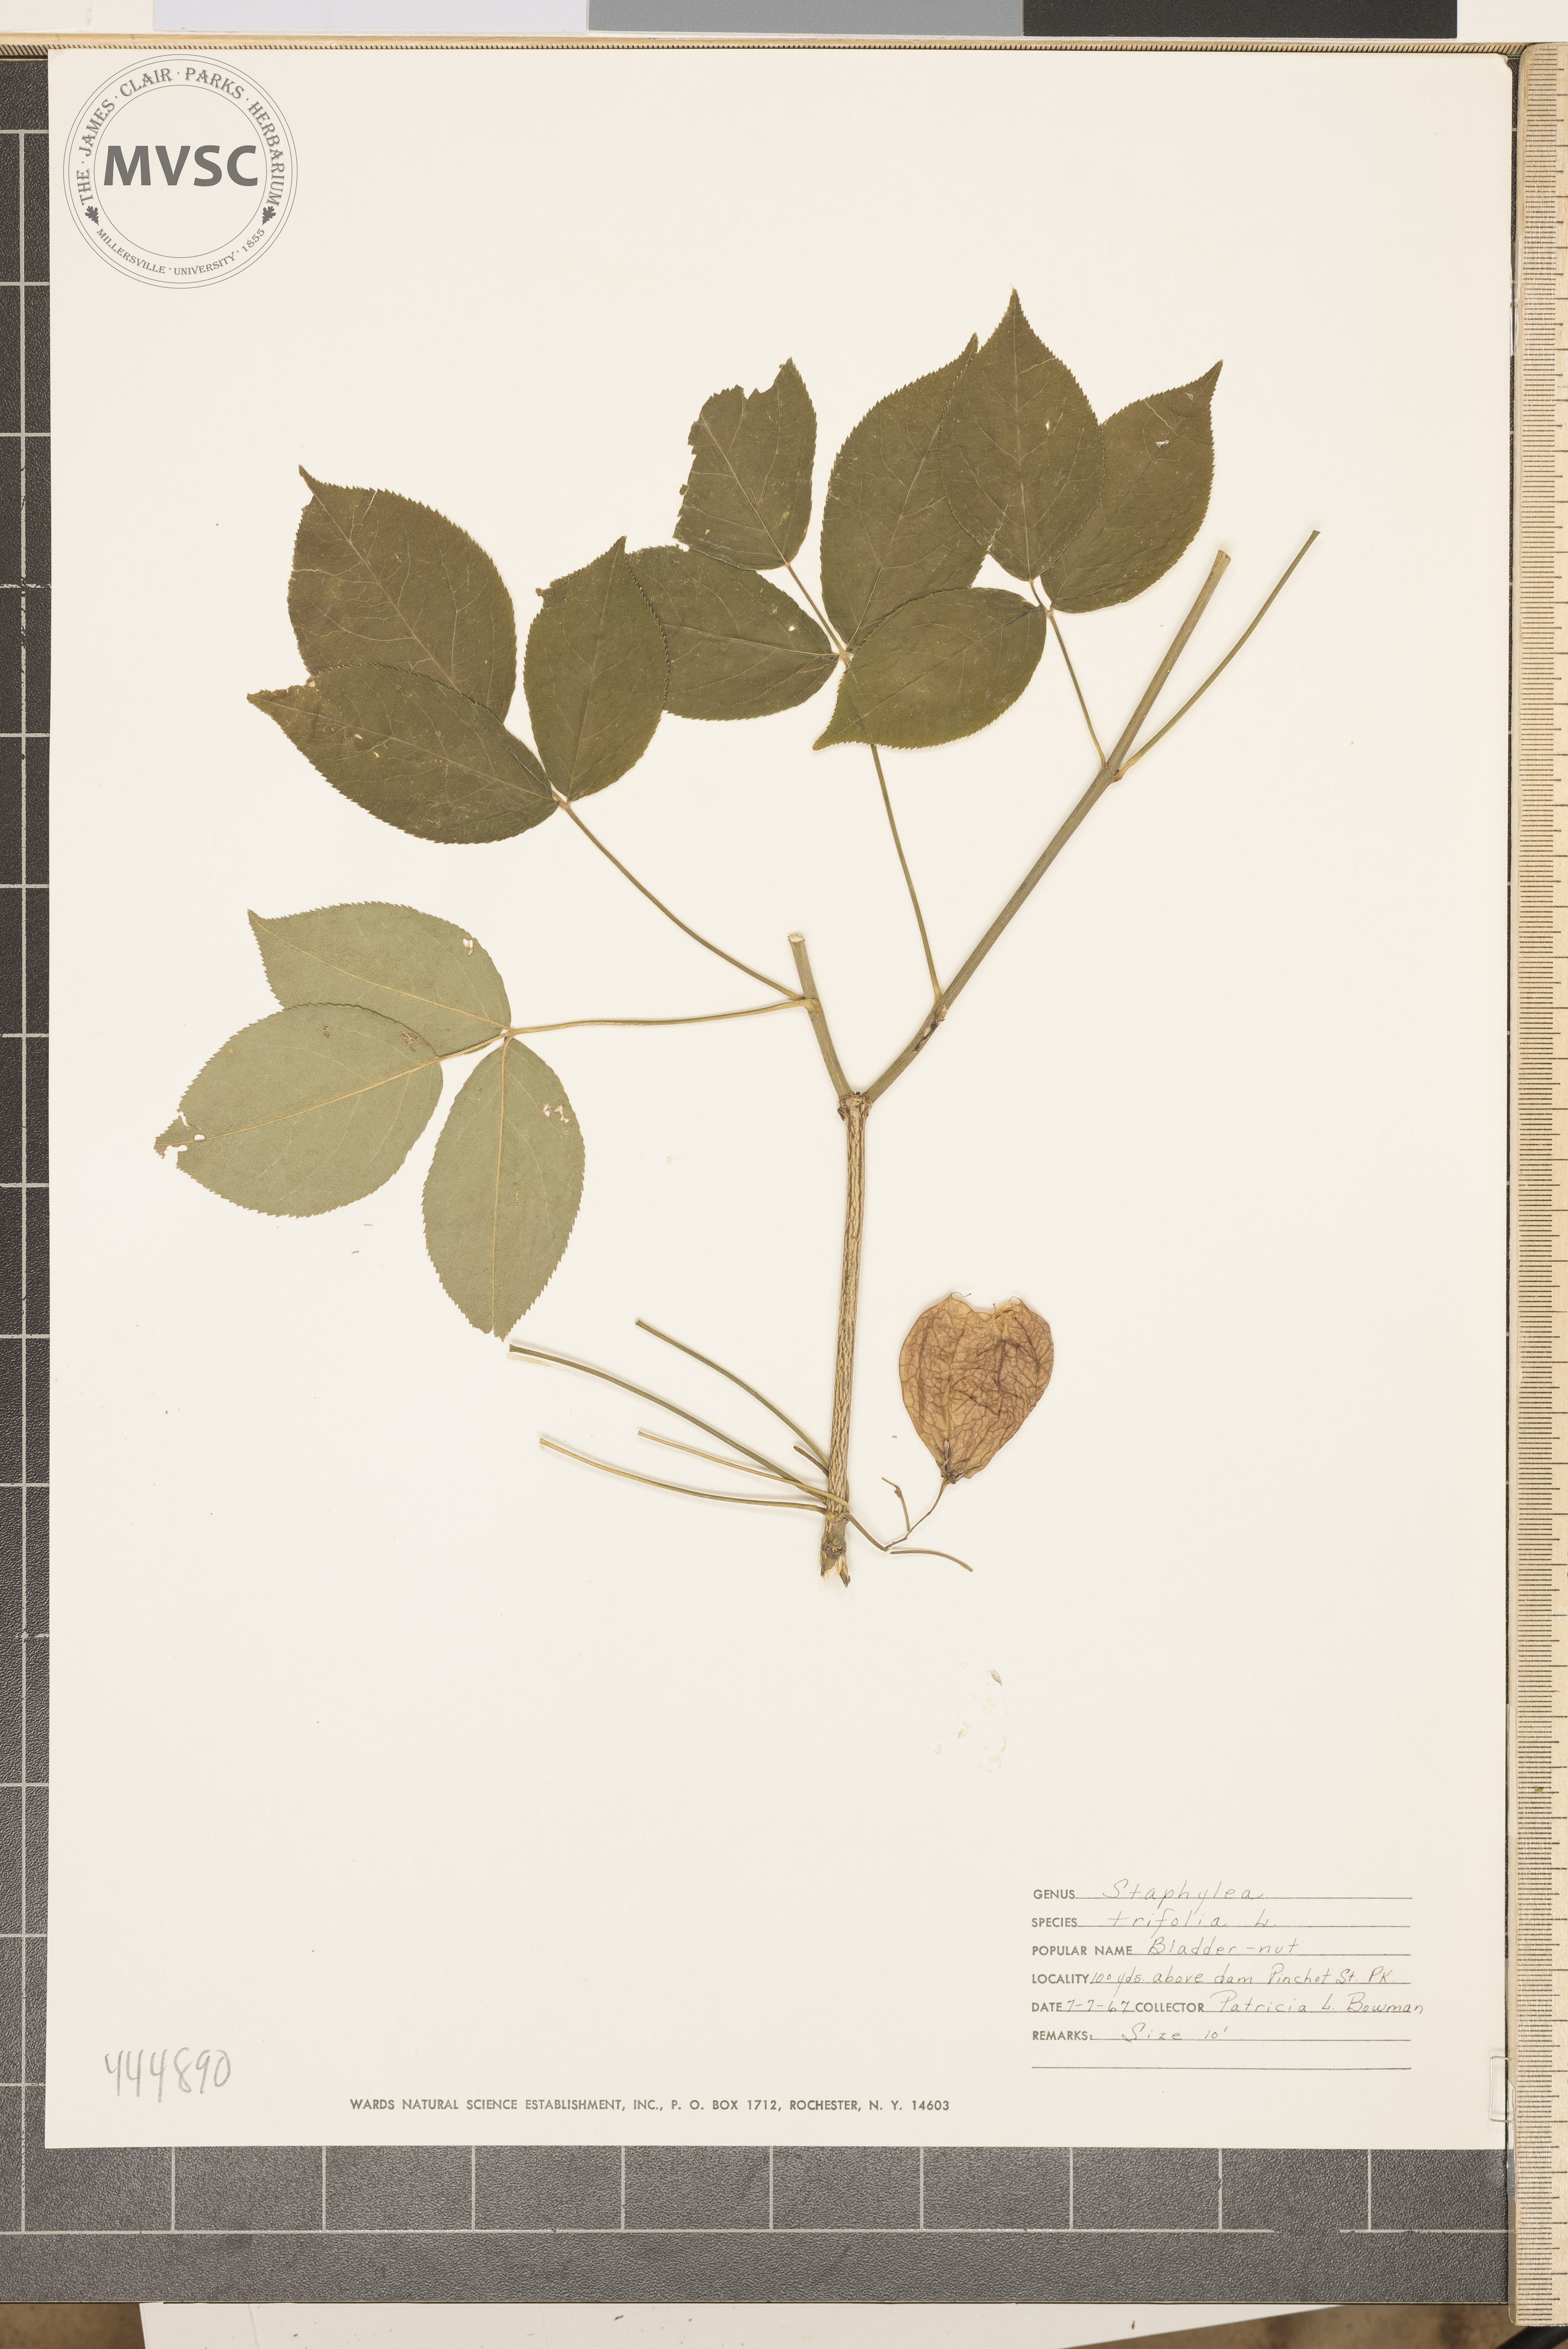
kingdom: Plantae
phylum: Tracheophyta
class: Magnoliopsida
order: Crossosomatales
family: Staphyleaceae
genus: Staphylea
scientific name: Staphylea trifolia
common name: American bladdernut
